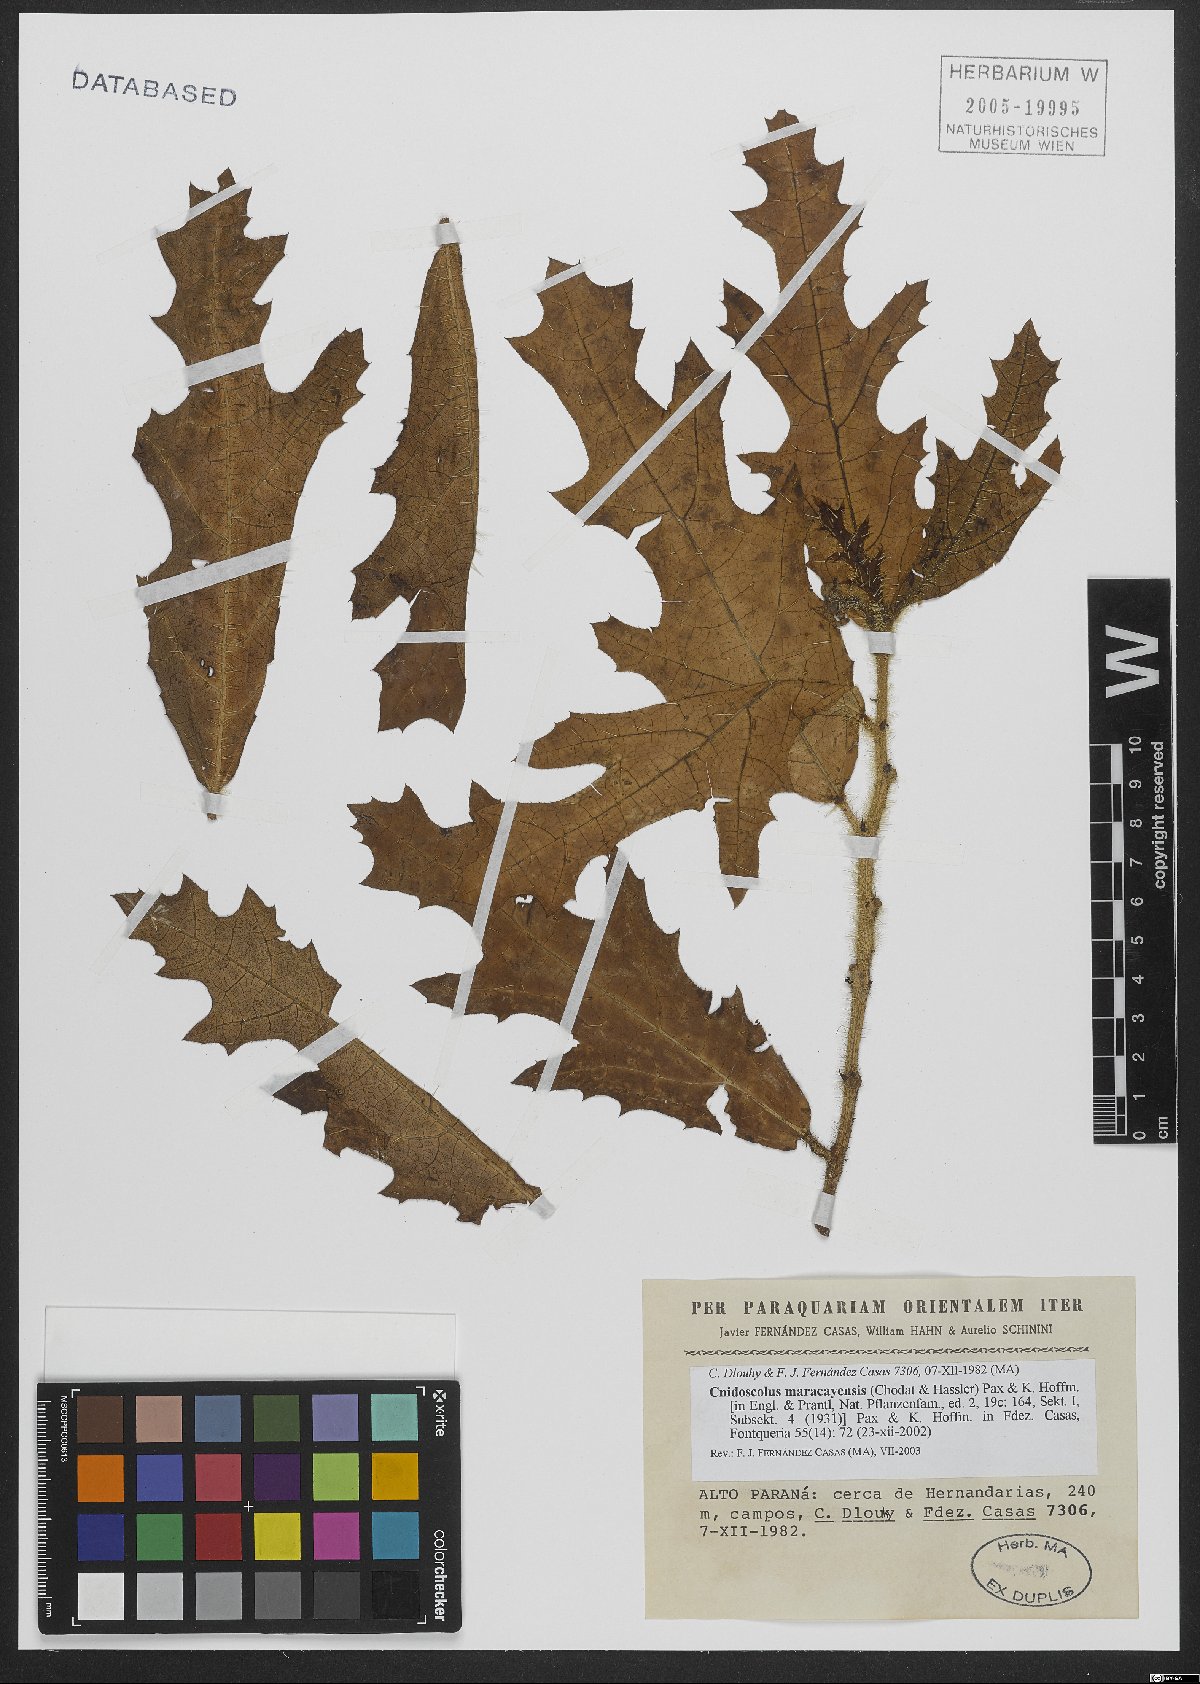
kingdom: Plantae
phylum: Tracheophyta
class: Magnoliopsida
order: Malpighiales
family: Euphorbiaceae
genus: Cnidoscolus
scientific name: Cnidoscolus maracayensis
